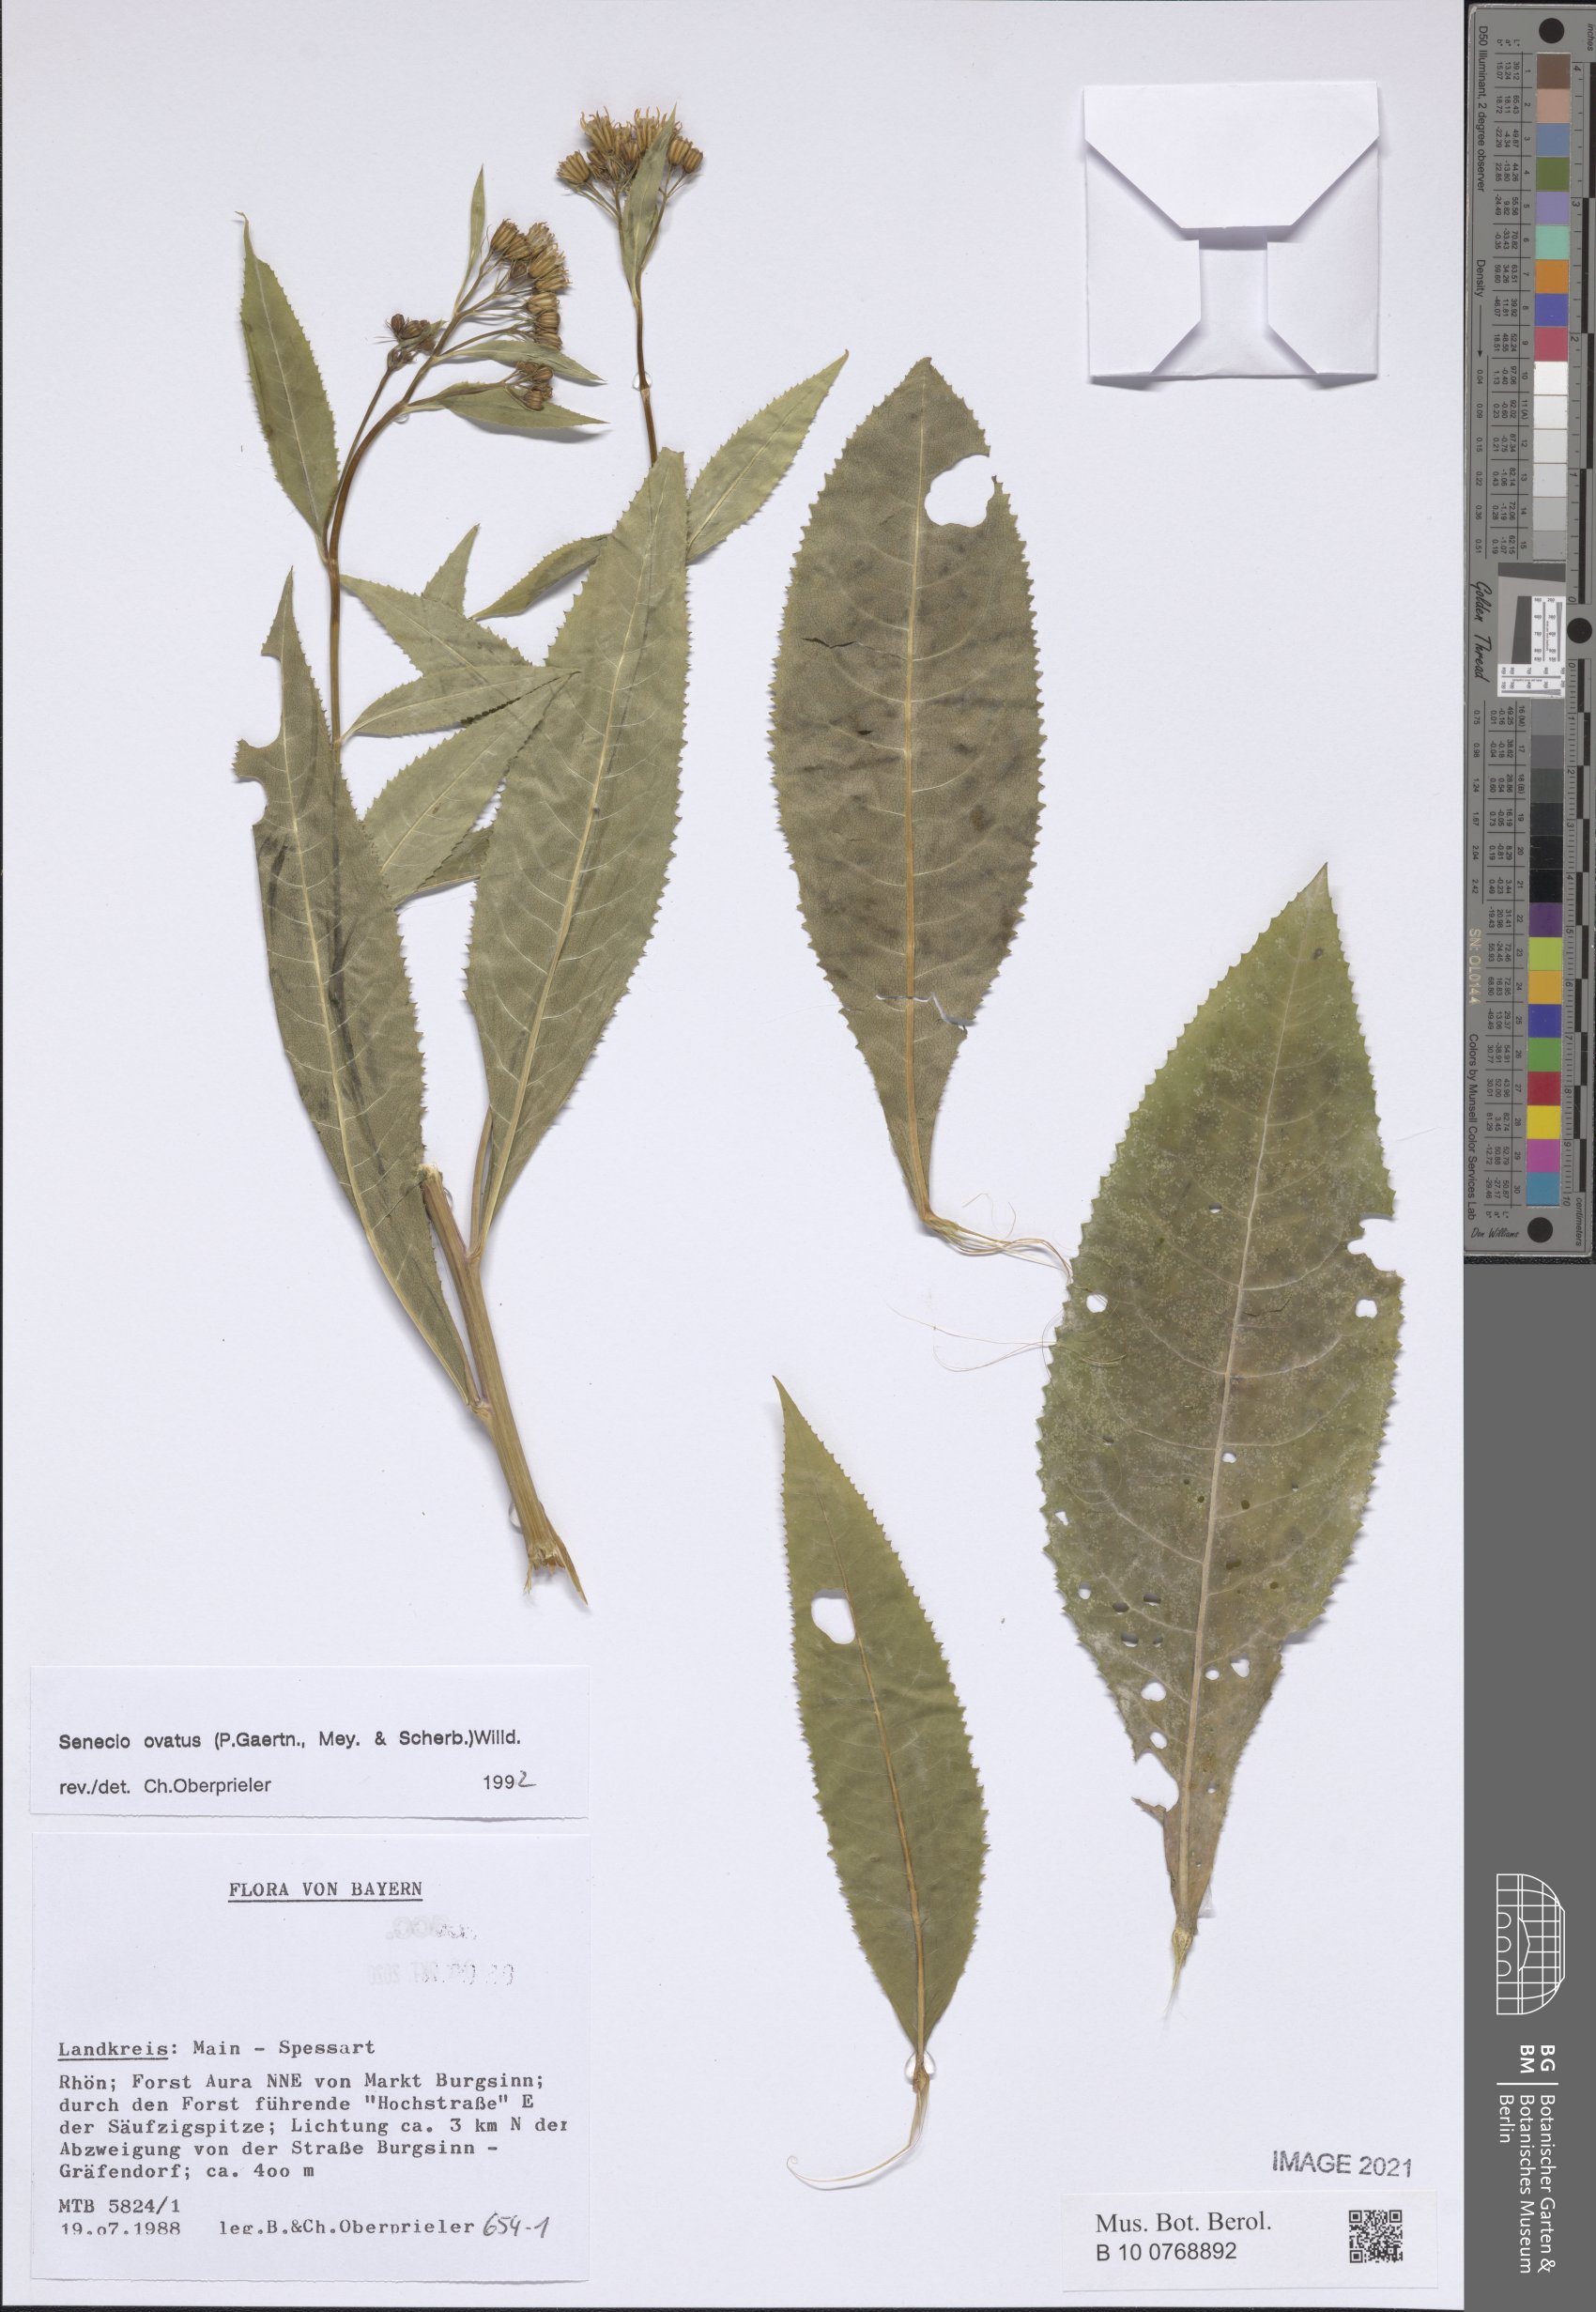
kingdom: Plantae
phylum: Tracheophyta
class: Magnoliopsida
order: Asterales
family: Asteraceae
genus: Senecio
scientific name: Senecio ovatus
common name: Wood ragwort
